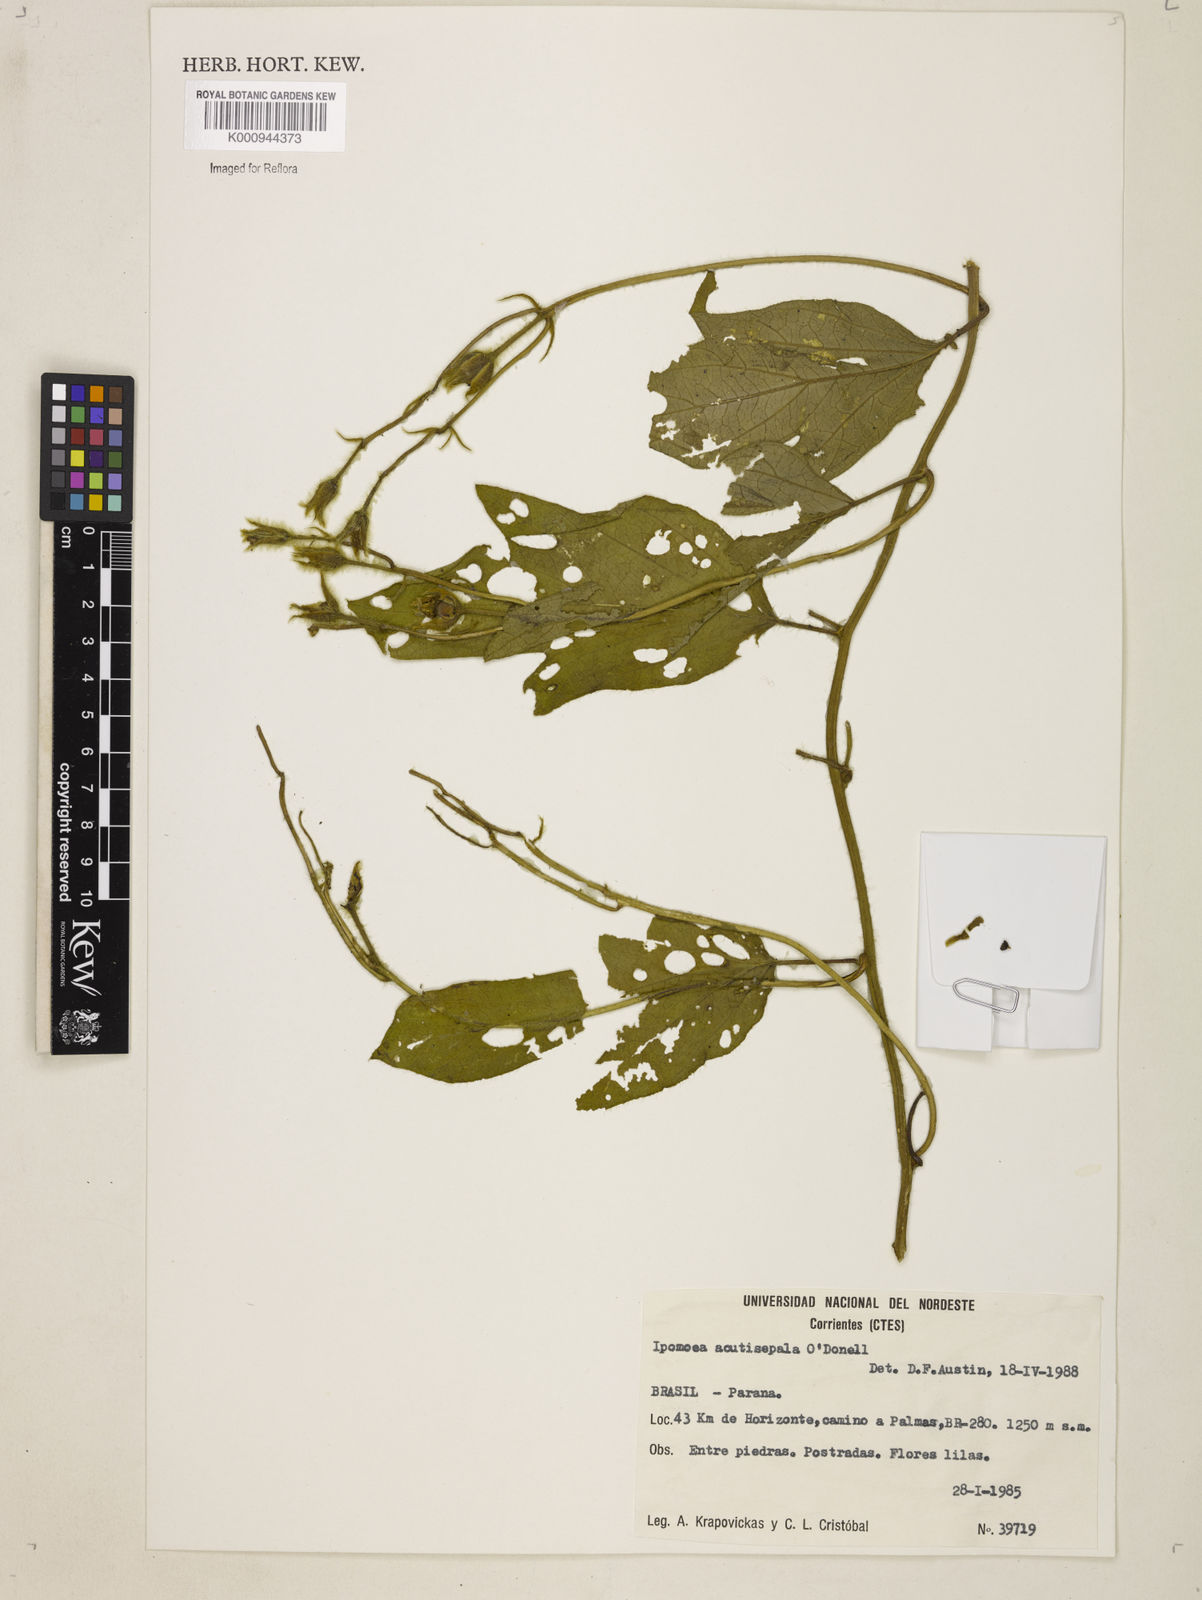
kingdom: Plantae
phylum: Tracheophyta
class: Magnoliopsida
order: Solanales
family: Convolvulaceae
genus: Ipomoea
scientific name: Ipomoea acutisepala
